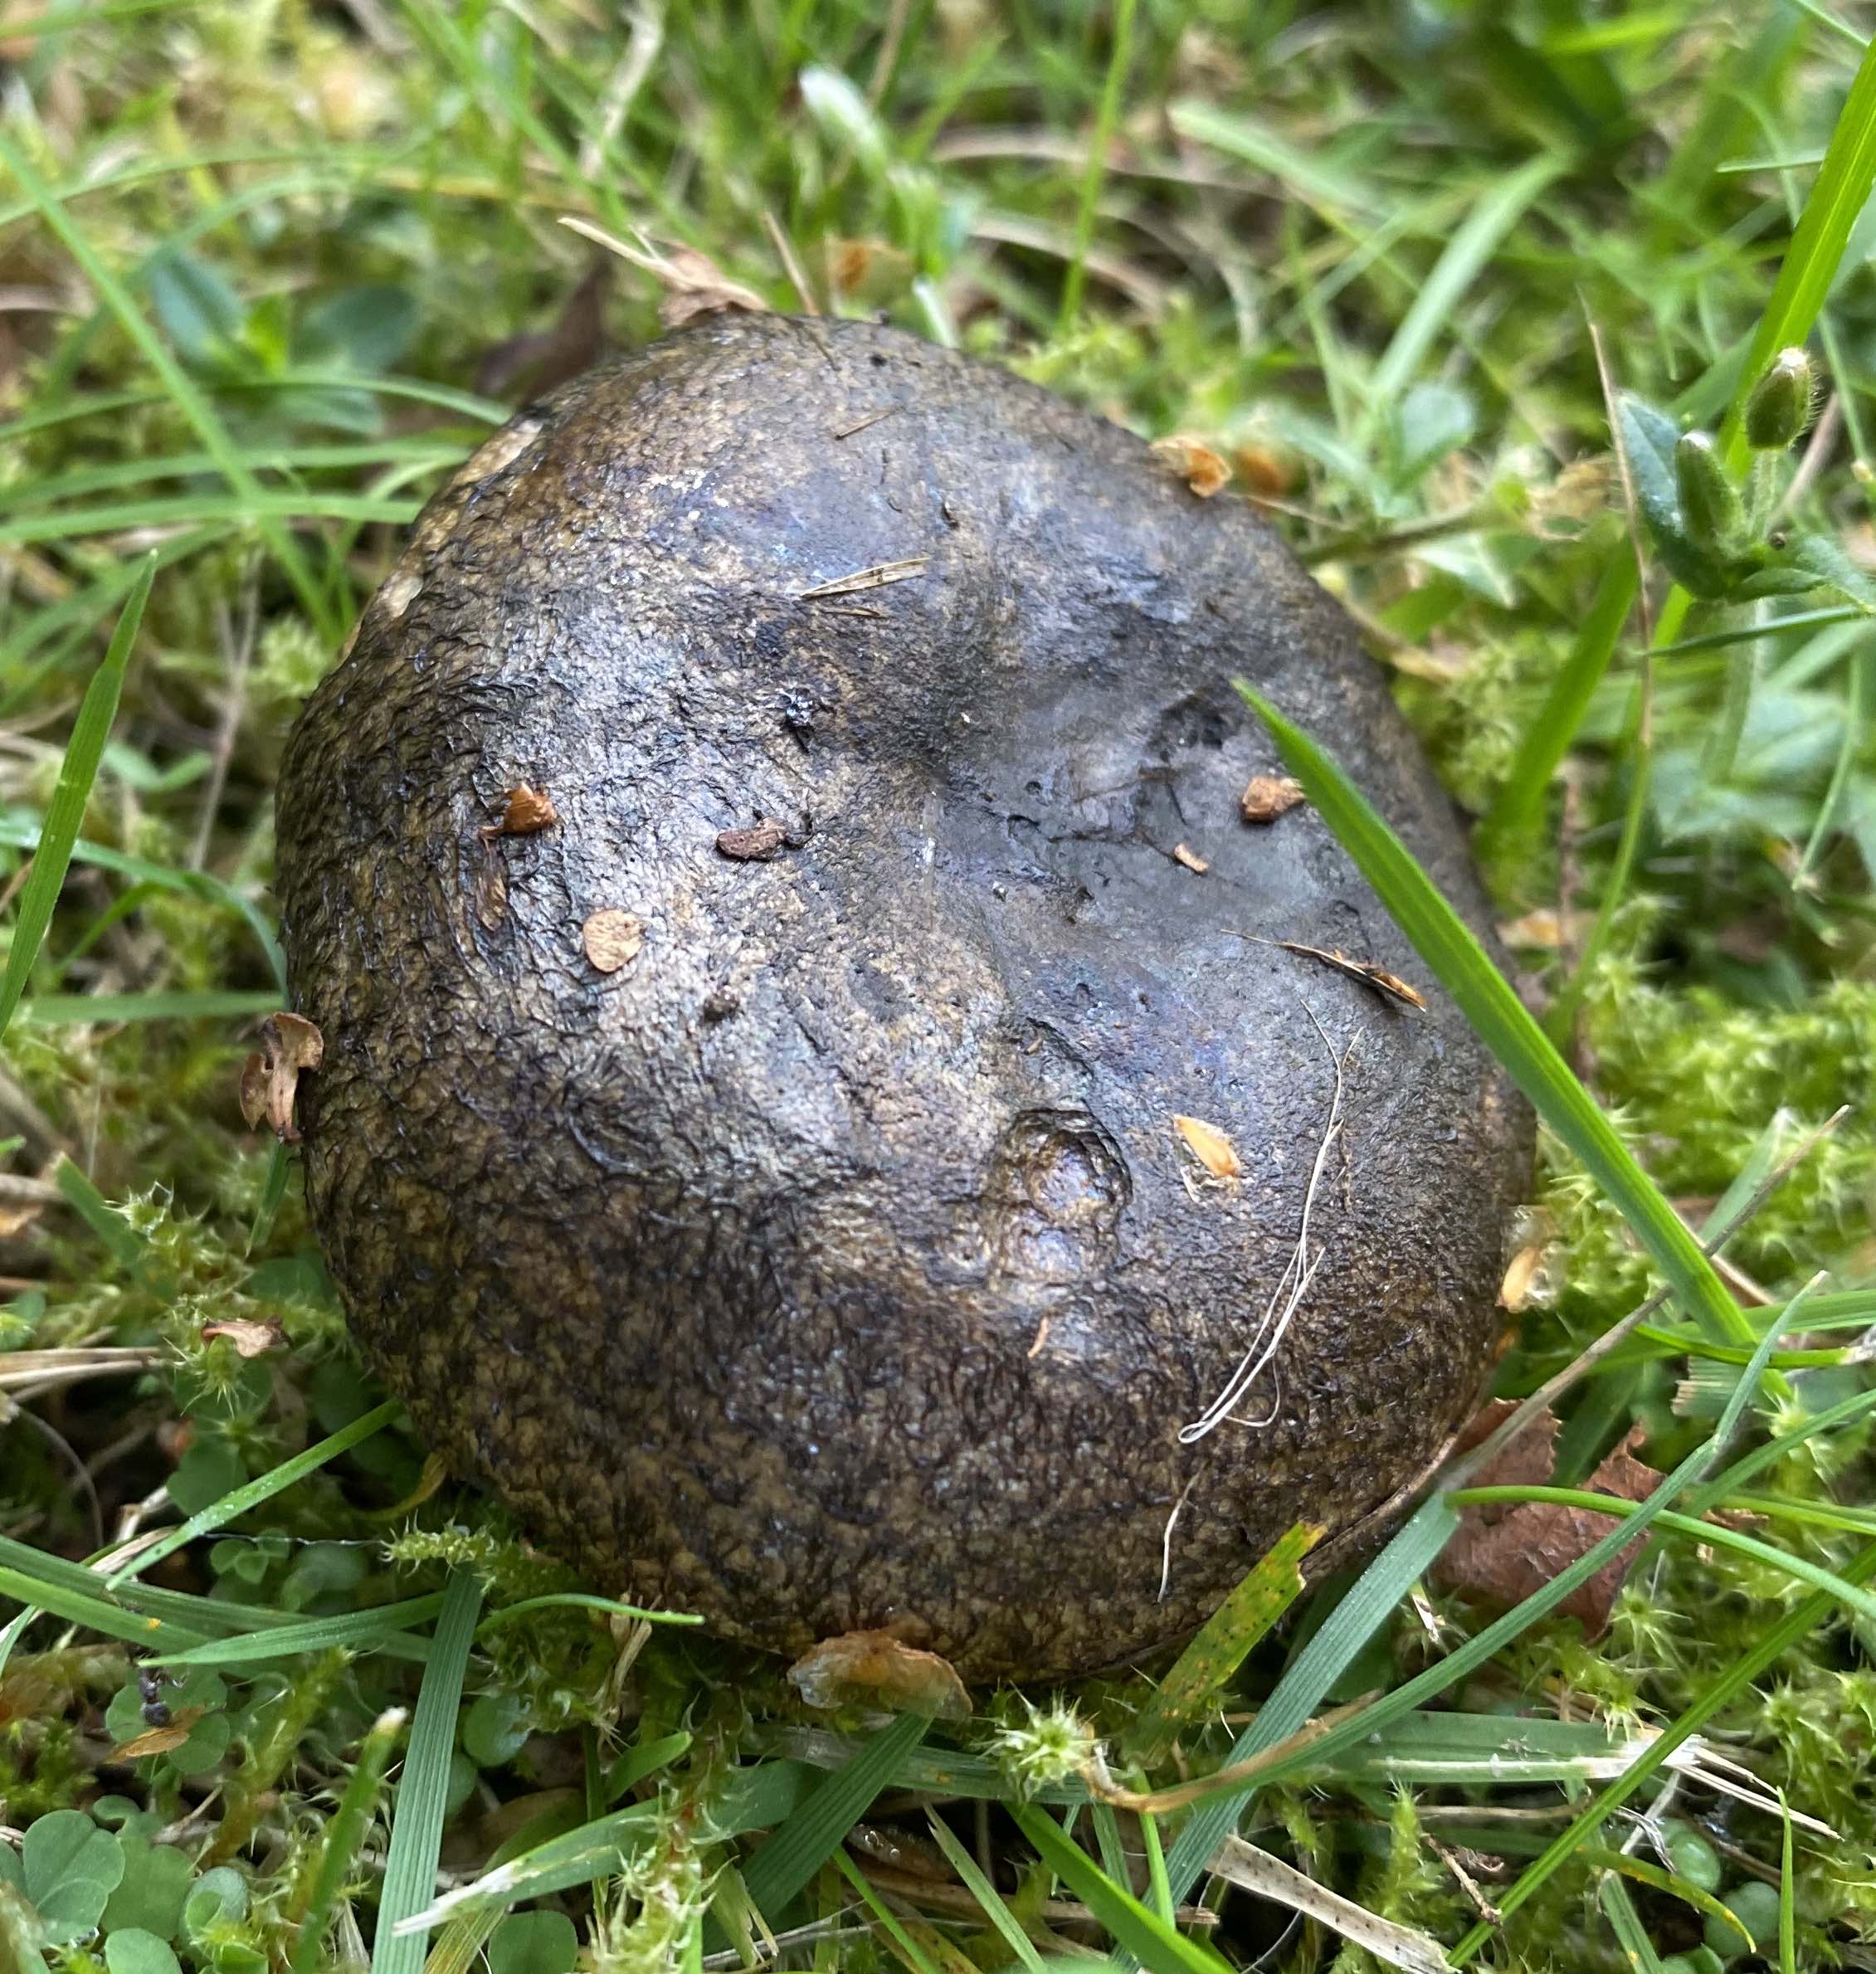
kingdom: Fungi
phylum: Basidiomycota
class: Agaricomycetes
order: Russulales
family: Russulaceae
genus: Lactarius
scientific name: Lactarius necator
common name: manddraber-mælkehat
